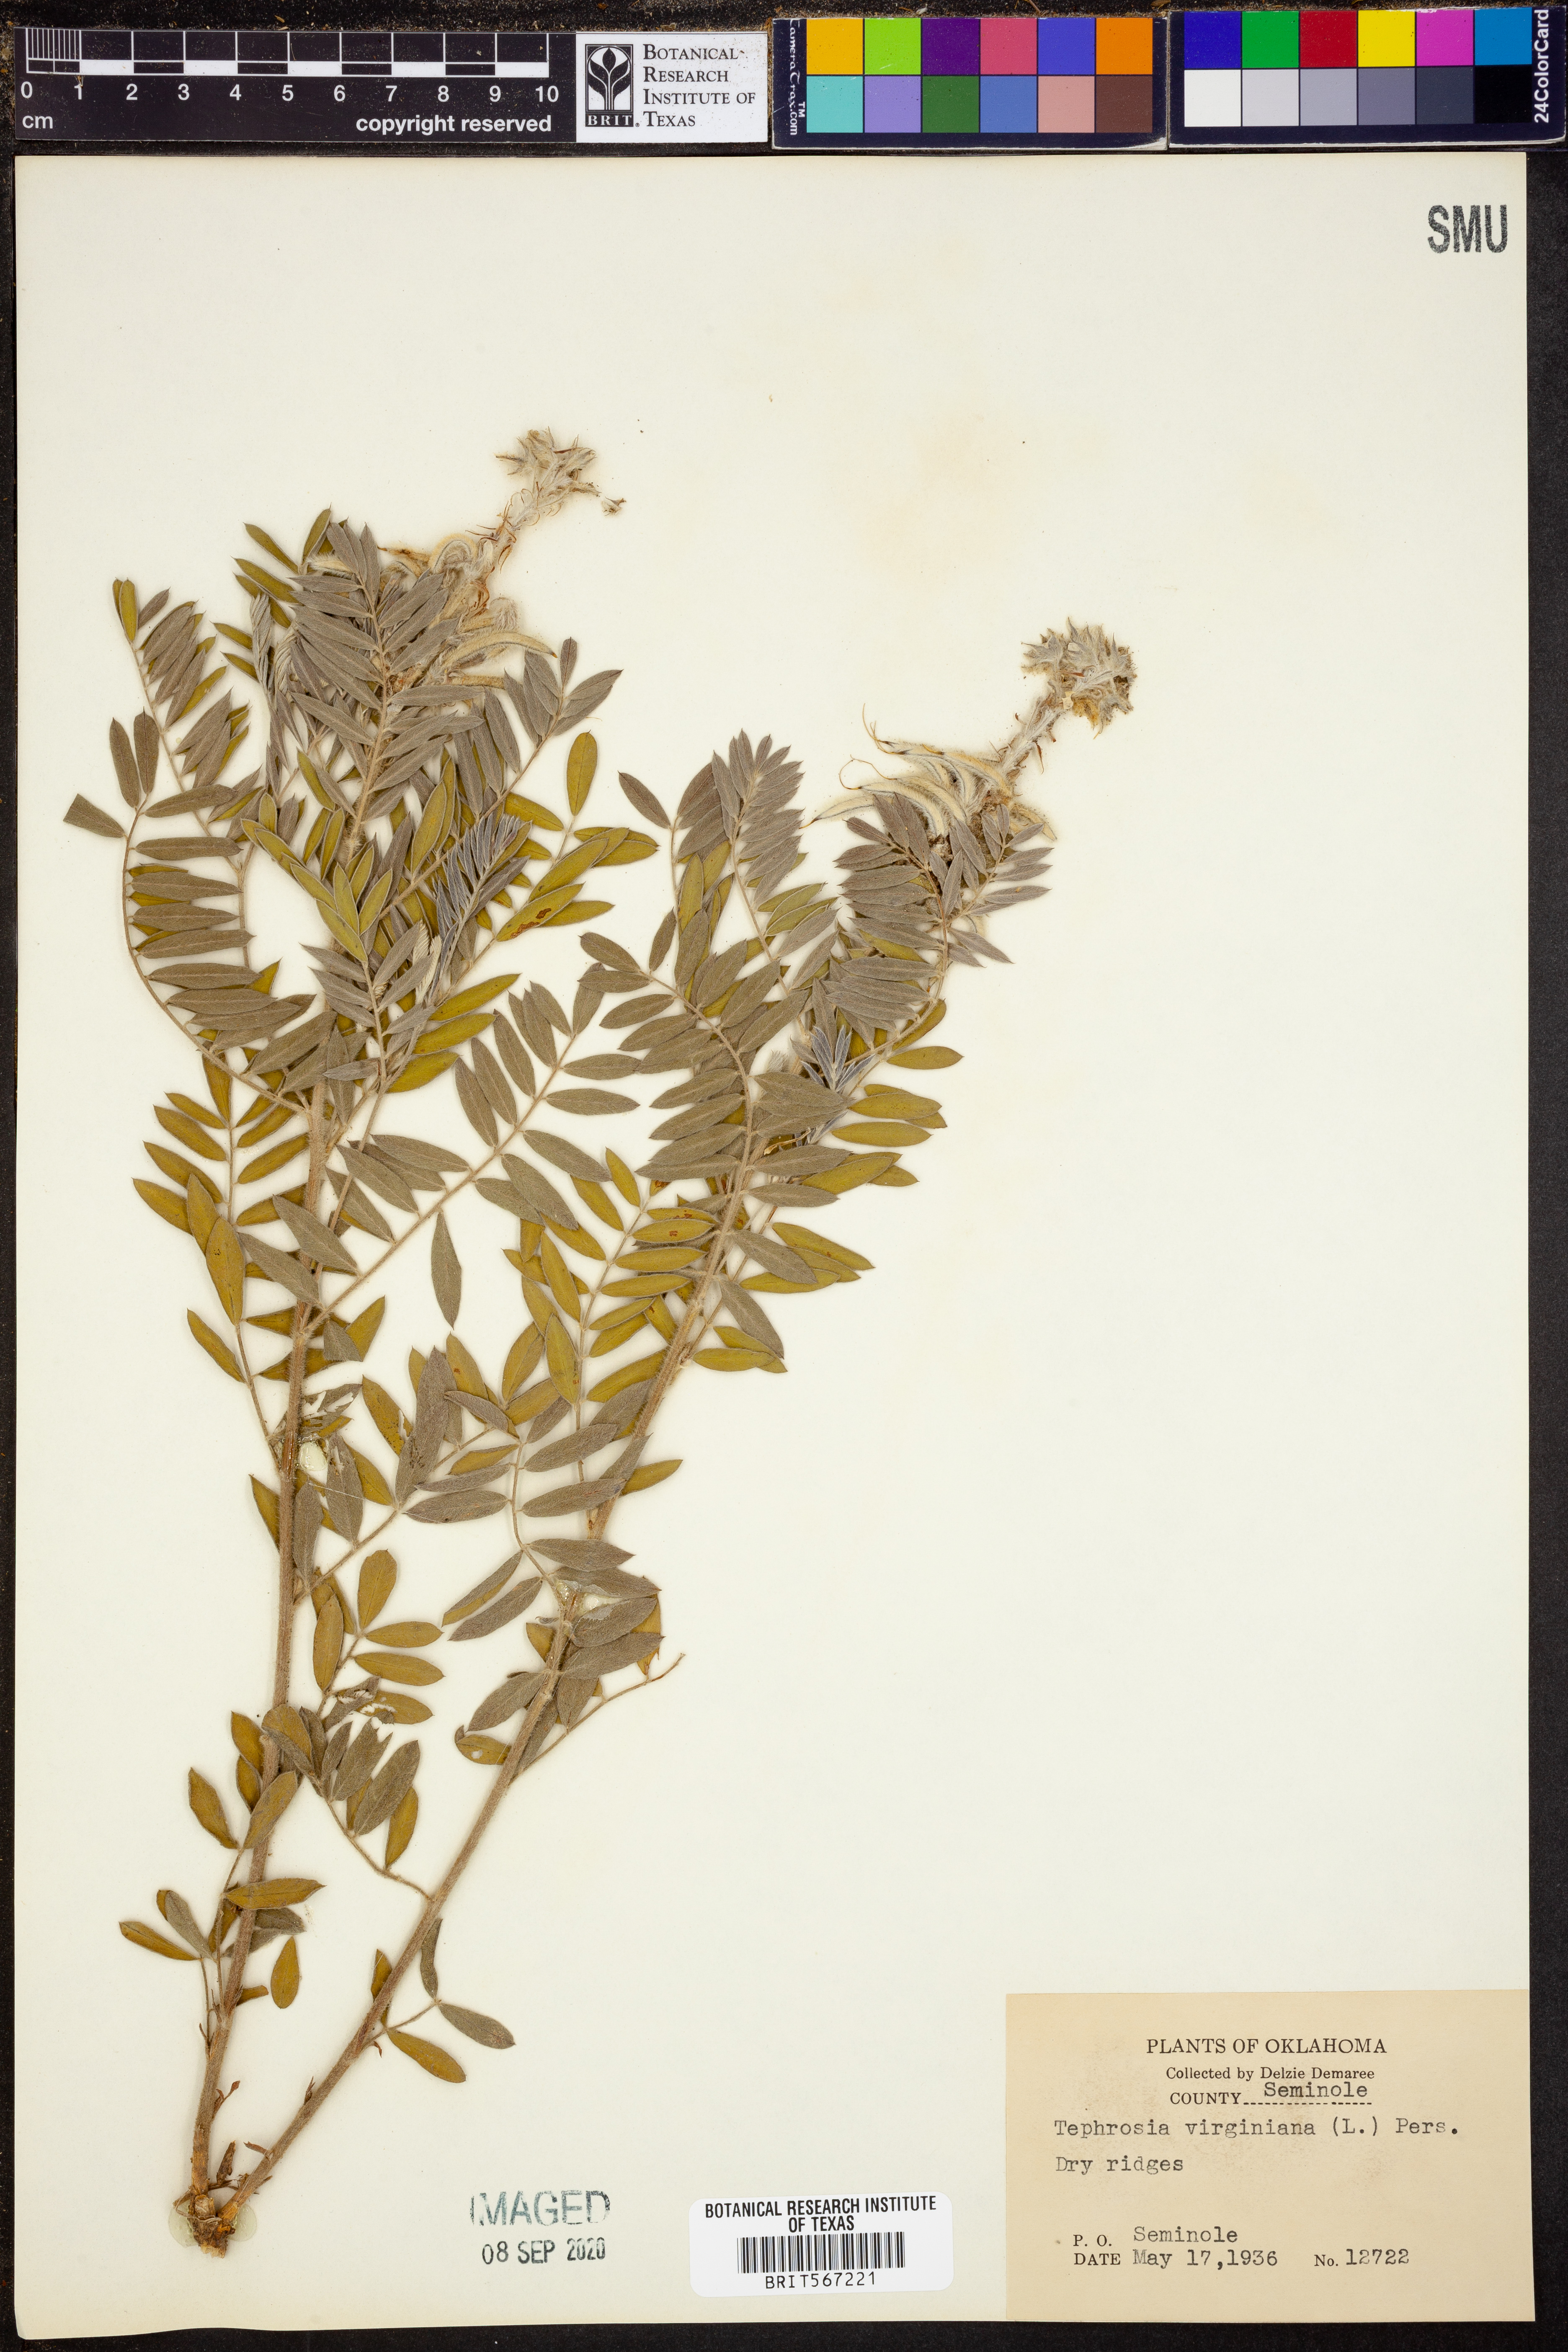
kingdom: Plantae
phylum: Tracheophyta
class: Magnoliopsida
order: Fabales
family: Fabaceae
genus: Tephrosia
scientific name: Tephrosia virginiana
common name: Rabbit-pea
